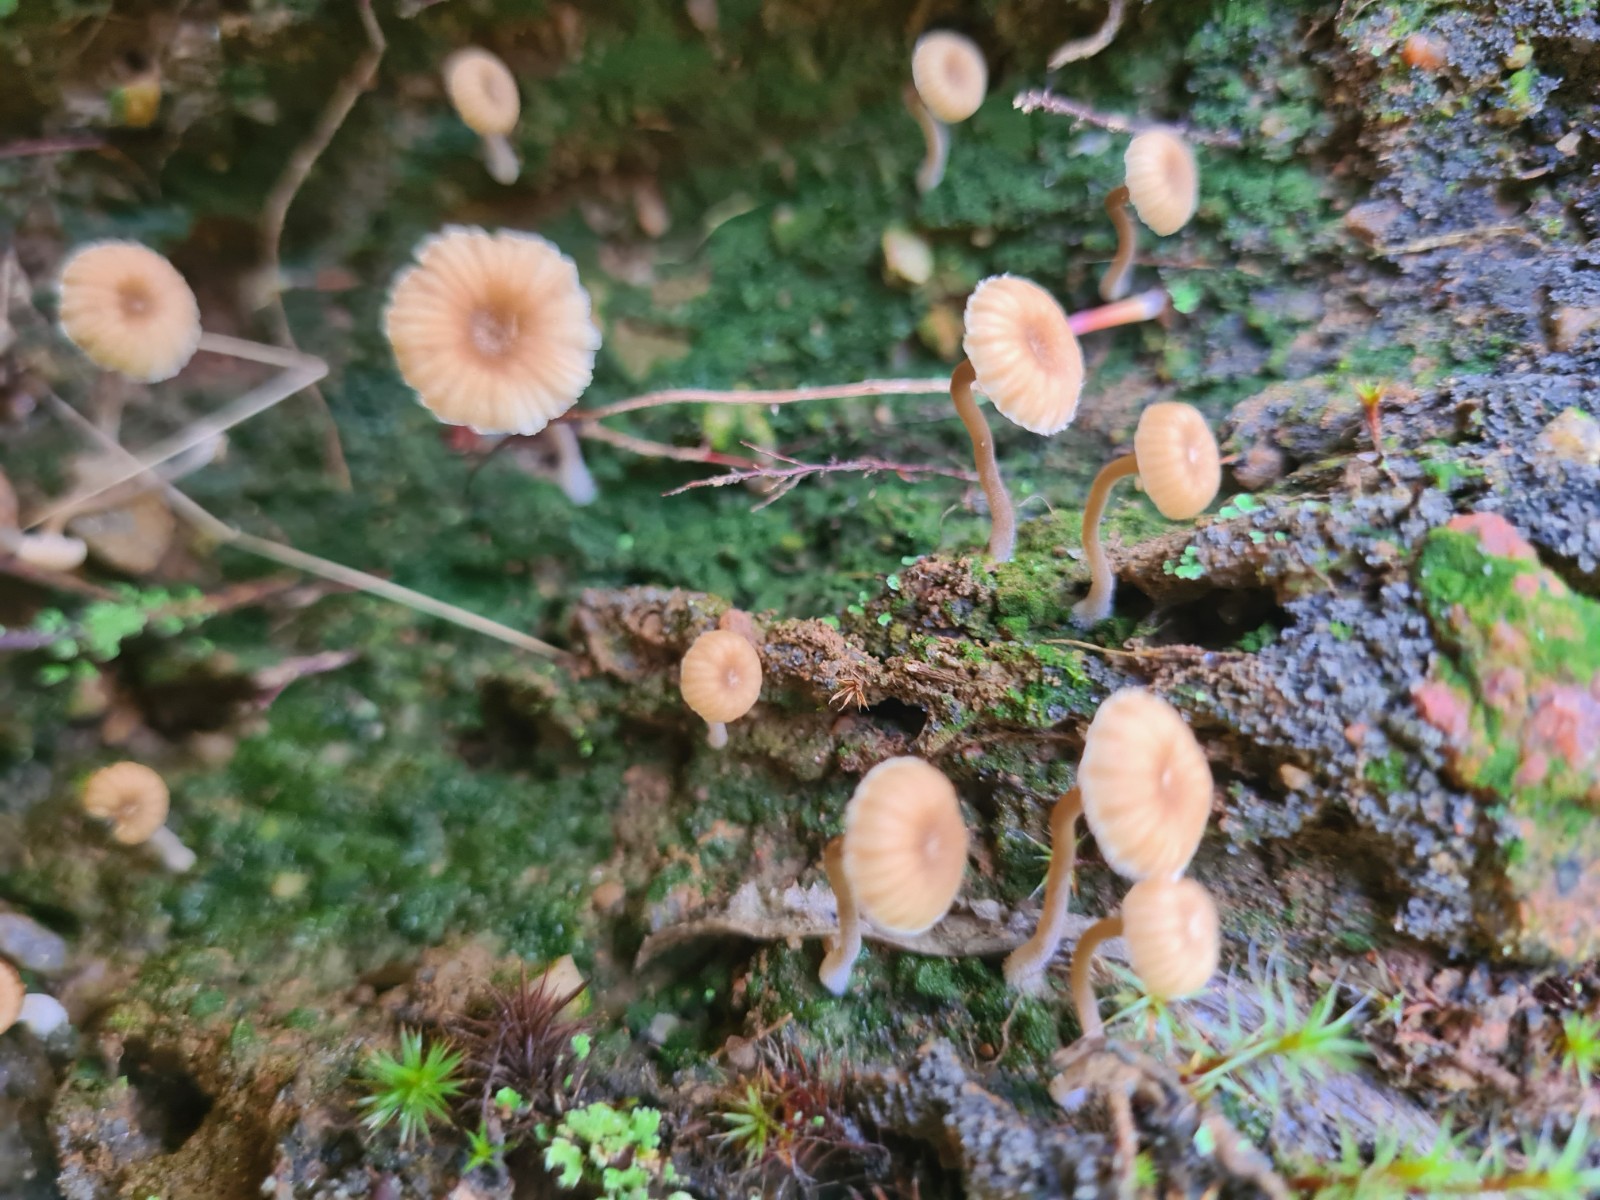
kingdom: Fungi
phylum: Basidiomycota
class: Agaricomycetes
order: Agaricales
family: Hygrophoraceae
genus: Lichenomphalia
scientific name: Lichenomphalia
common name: lavhat
